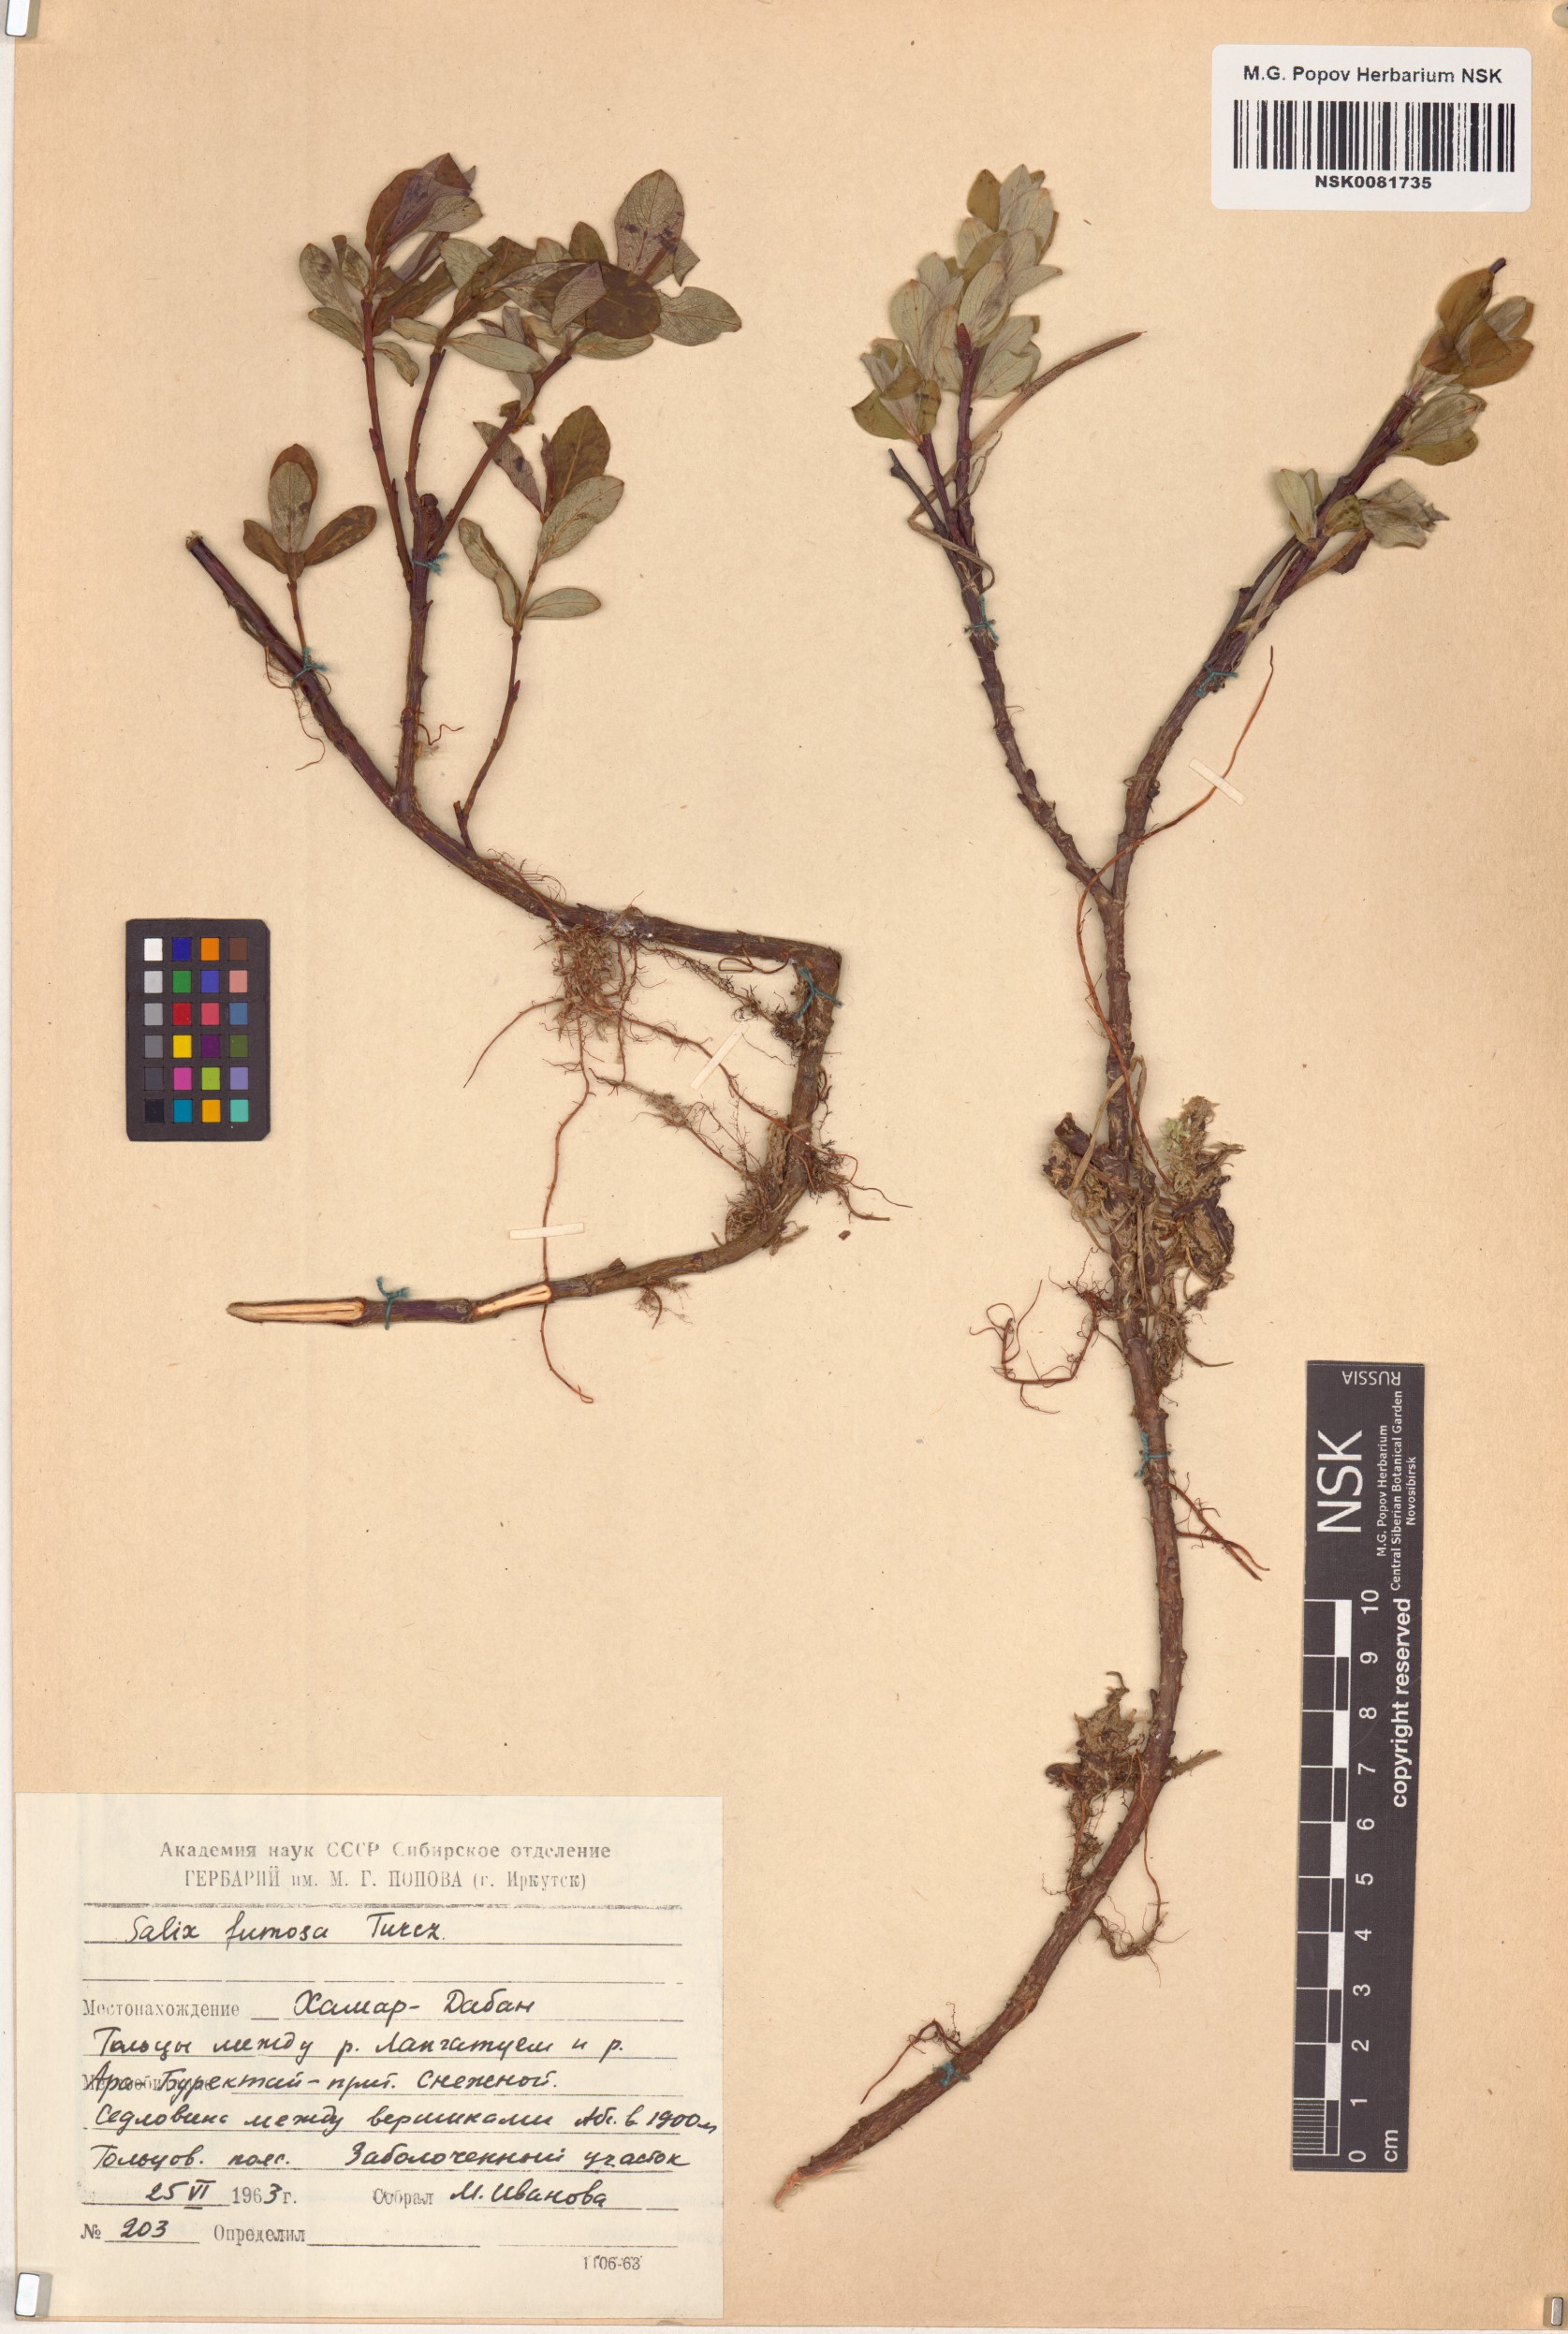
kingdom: Plantae
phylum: Tracheophyta
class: Magnoliopsida
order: Malpighiales
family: Salicaceae
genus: Salix
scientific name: Salix saxatilis
